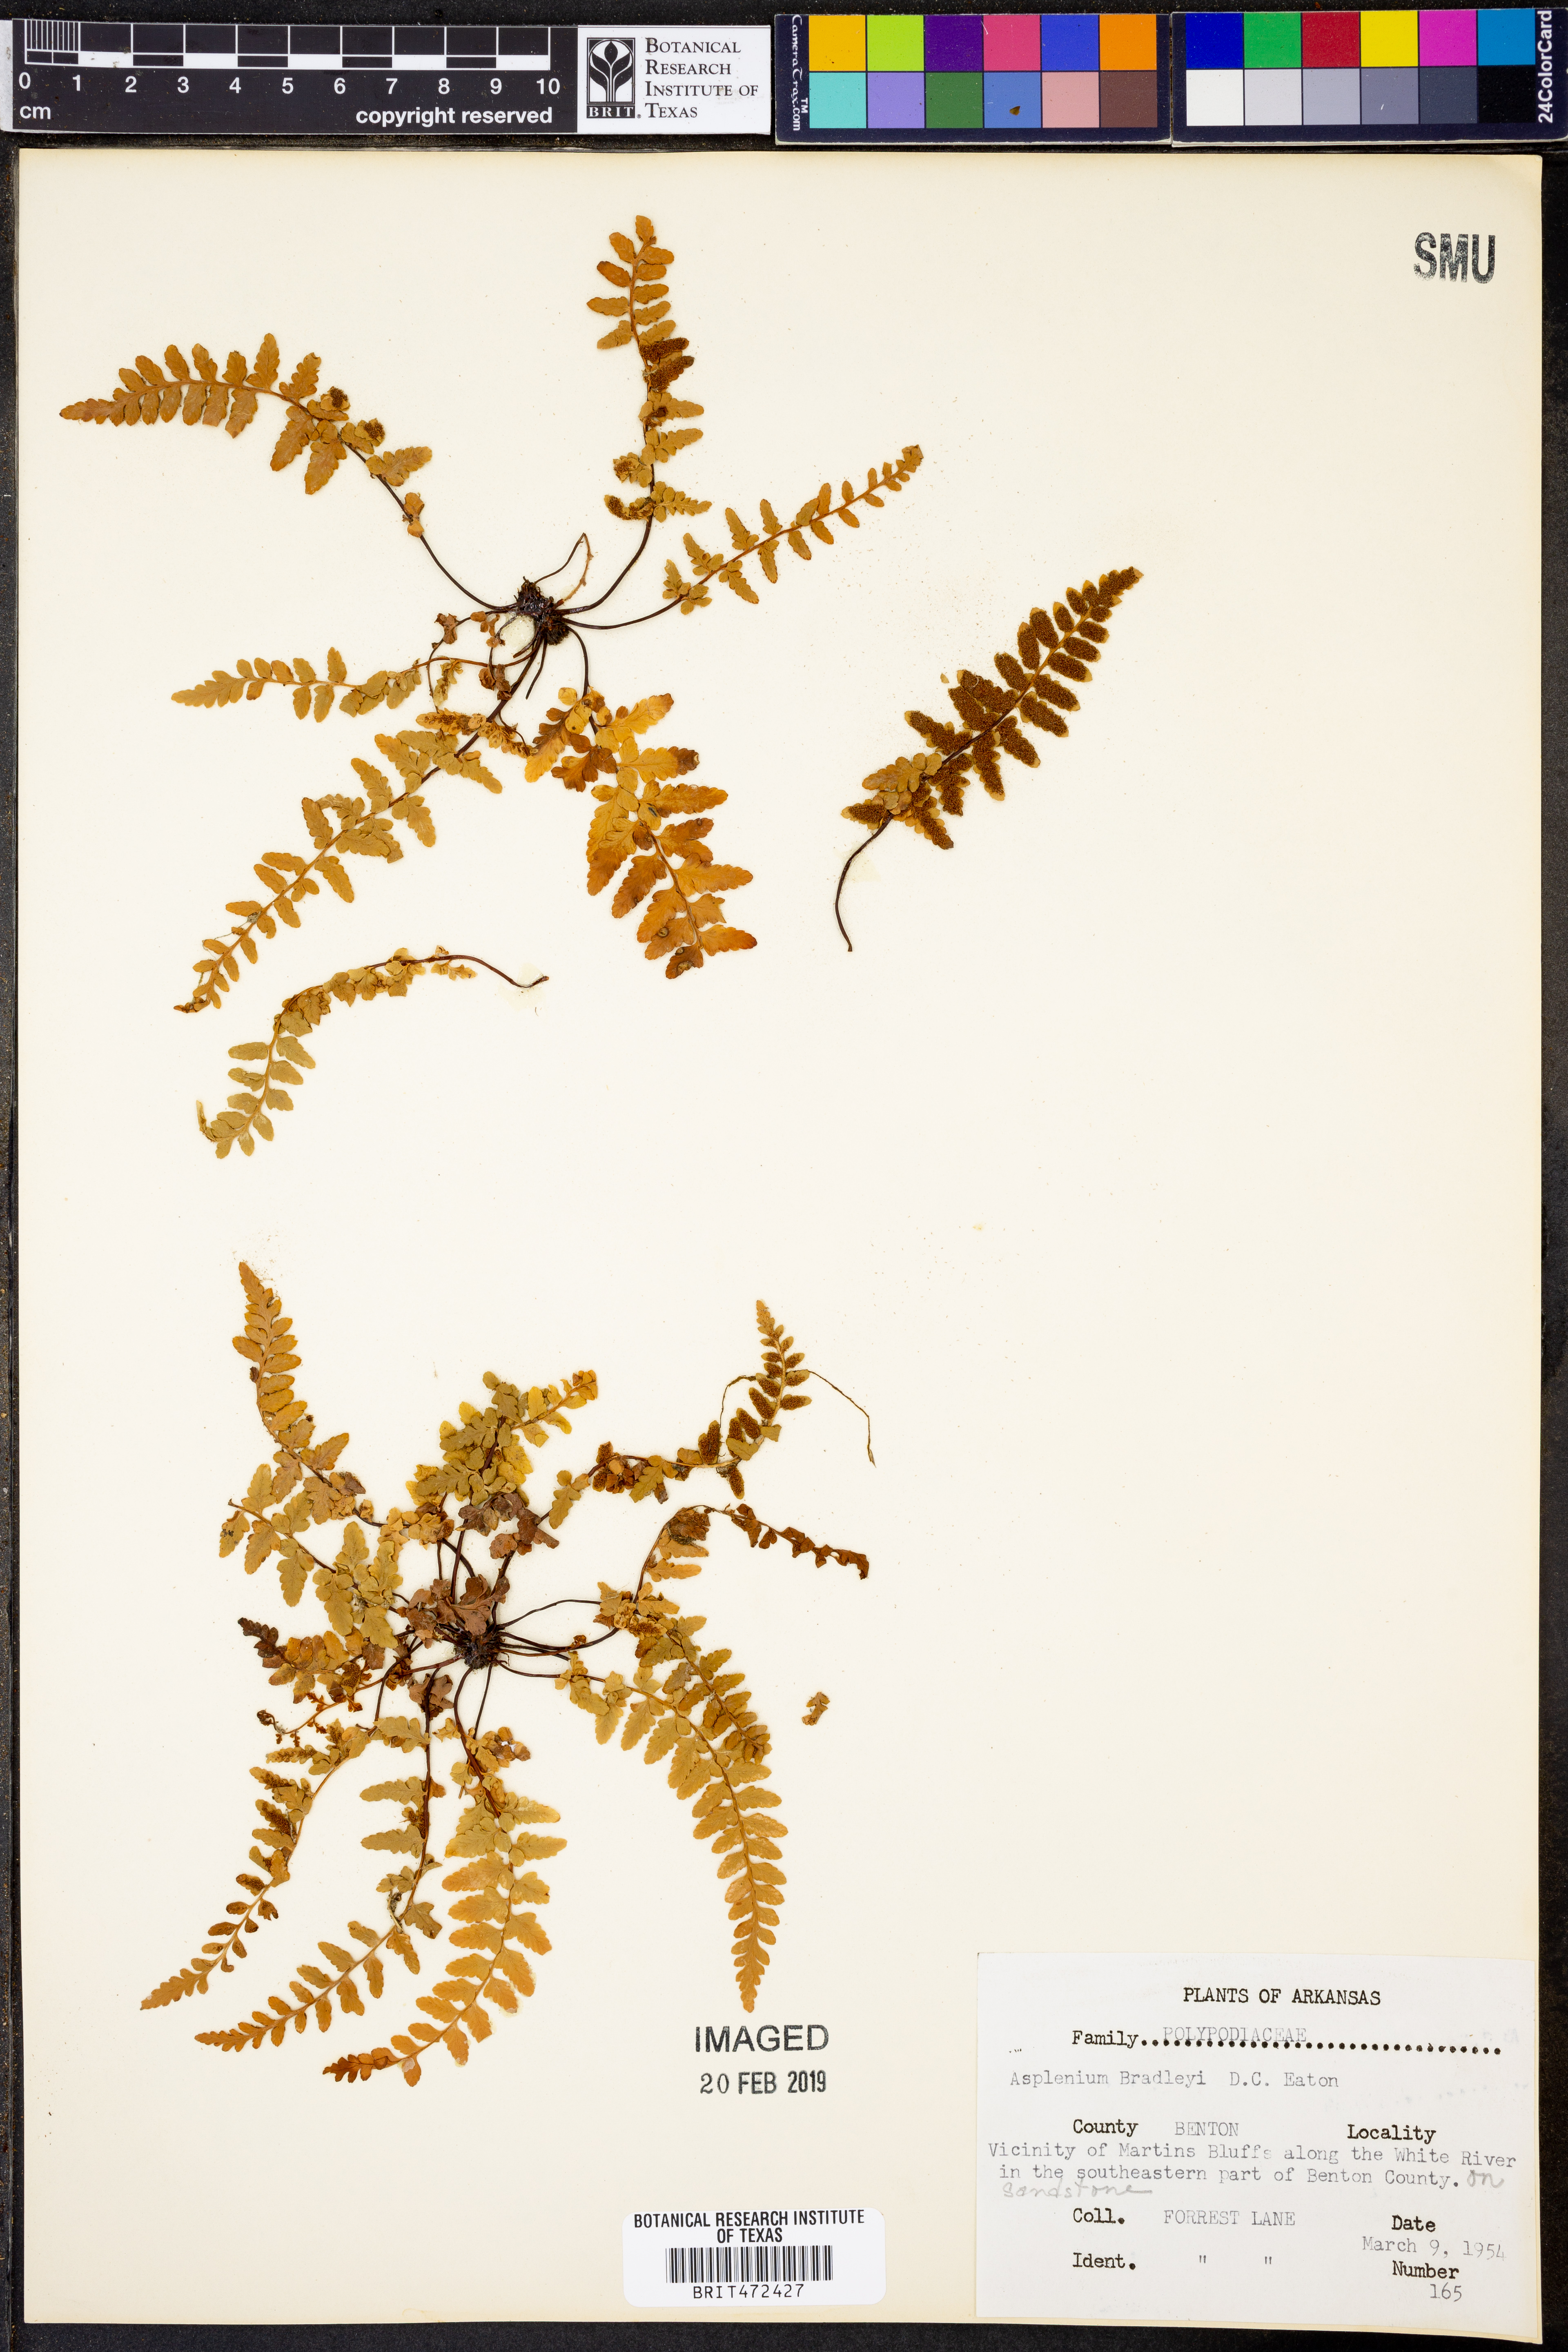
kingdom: Plantae
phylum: Tracheophyta
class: Polypodiopsida
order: Polypodiales
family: Aspleniaceae
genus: Asplenium
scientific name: Asplenium bradleyi
